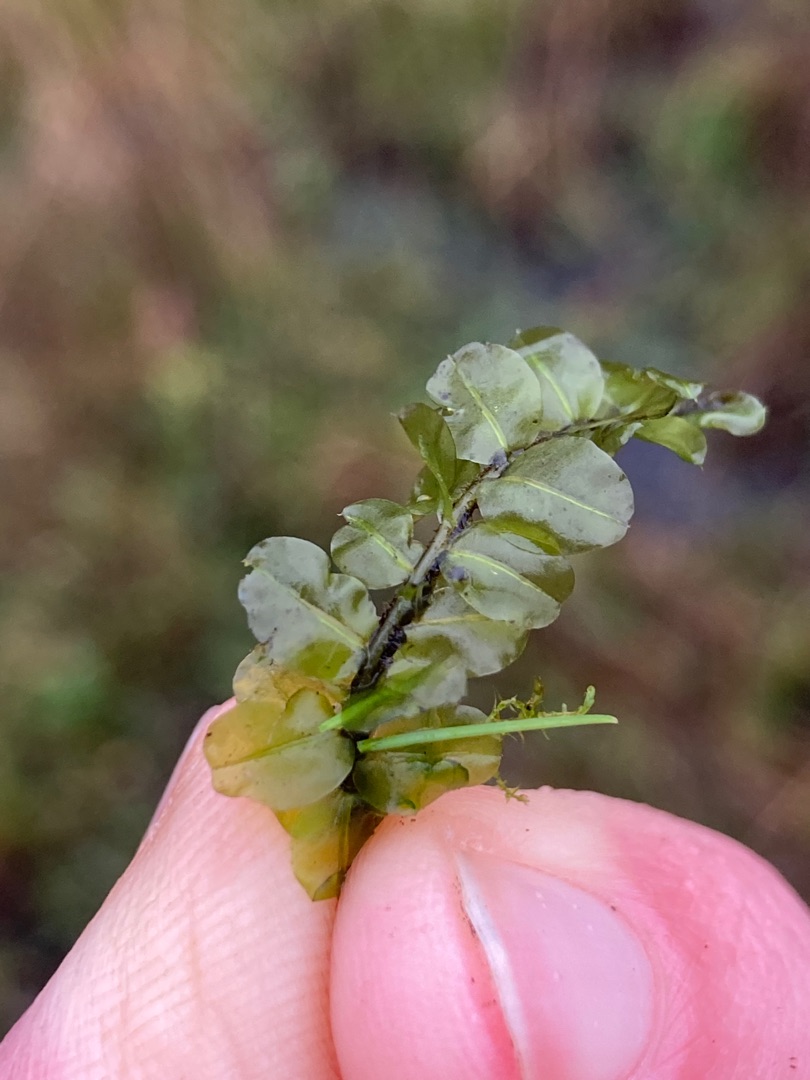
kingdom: Plantae
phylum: Bryophyta
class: Bryopsida
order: Bryales
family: Mniaceae
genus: Plagiomnium
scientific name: Plagiomnium ellipticum
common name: Mose-krybstjerne
